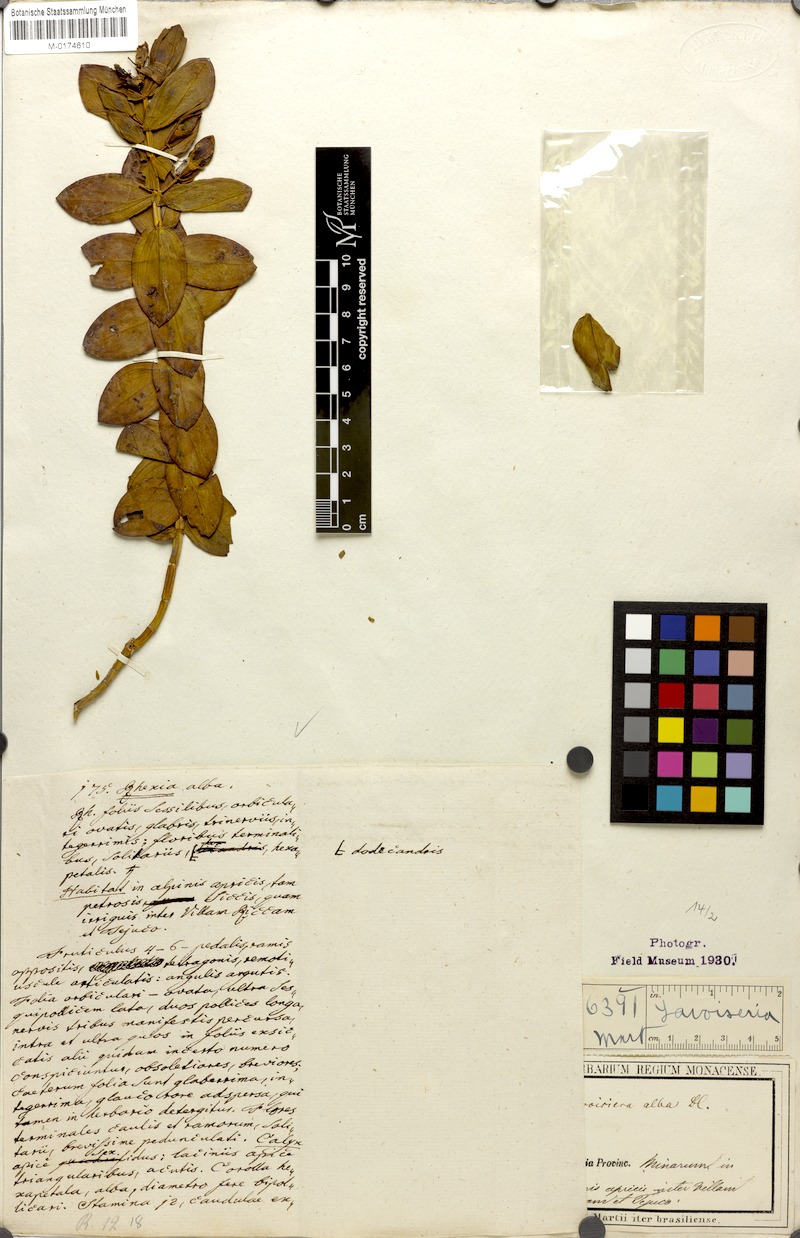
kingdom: Plantae
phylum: Tracheophyta
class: Magnoliopsida
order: Myrtales
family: Melastomataceae
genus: Microlicia
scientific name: Microlicia alba
